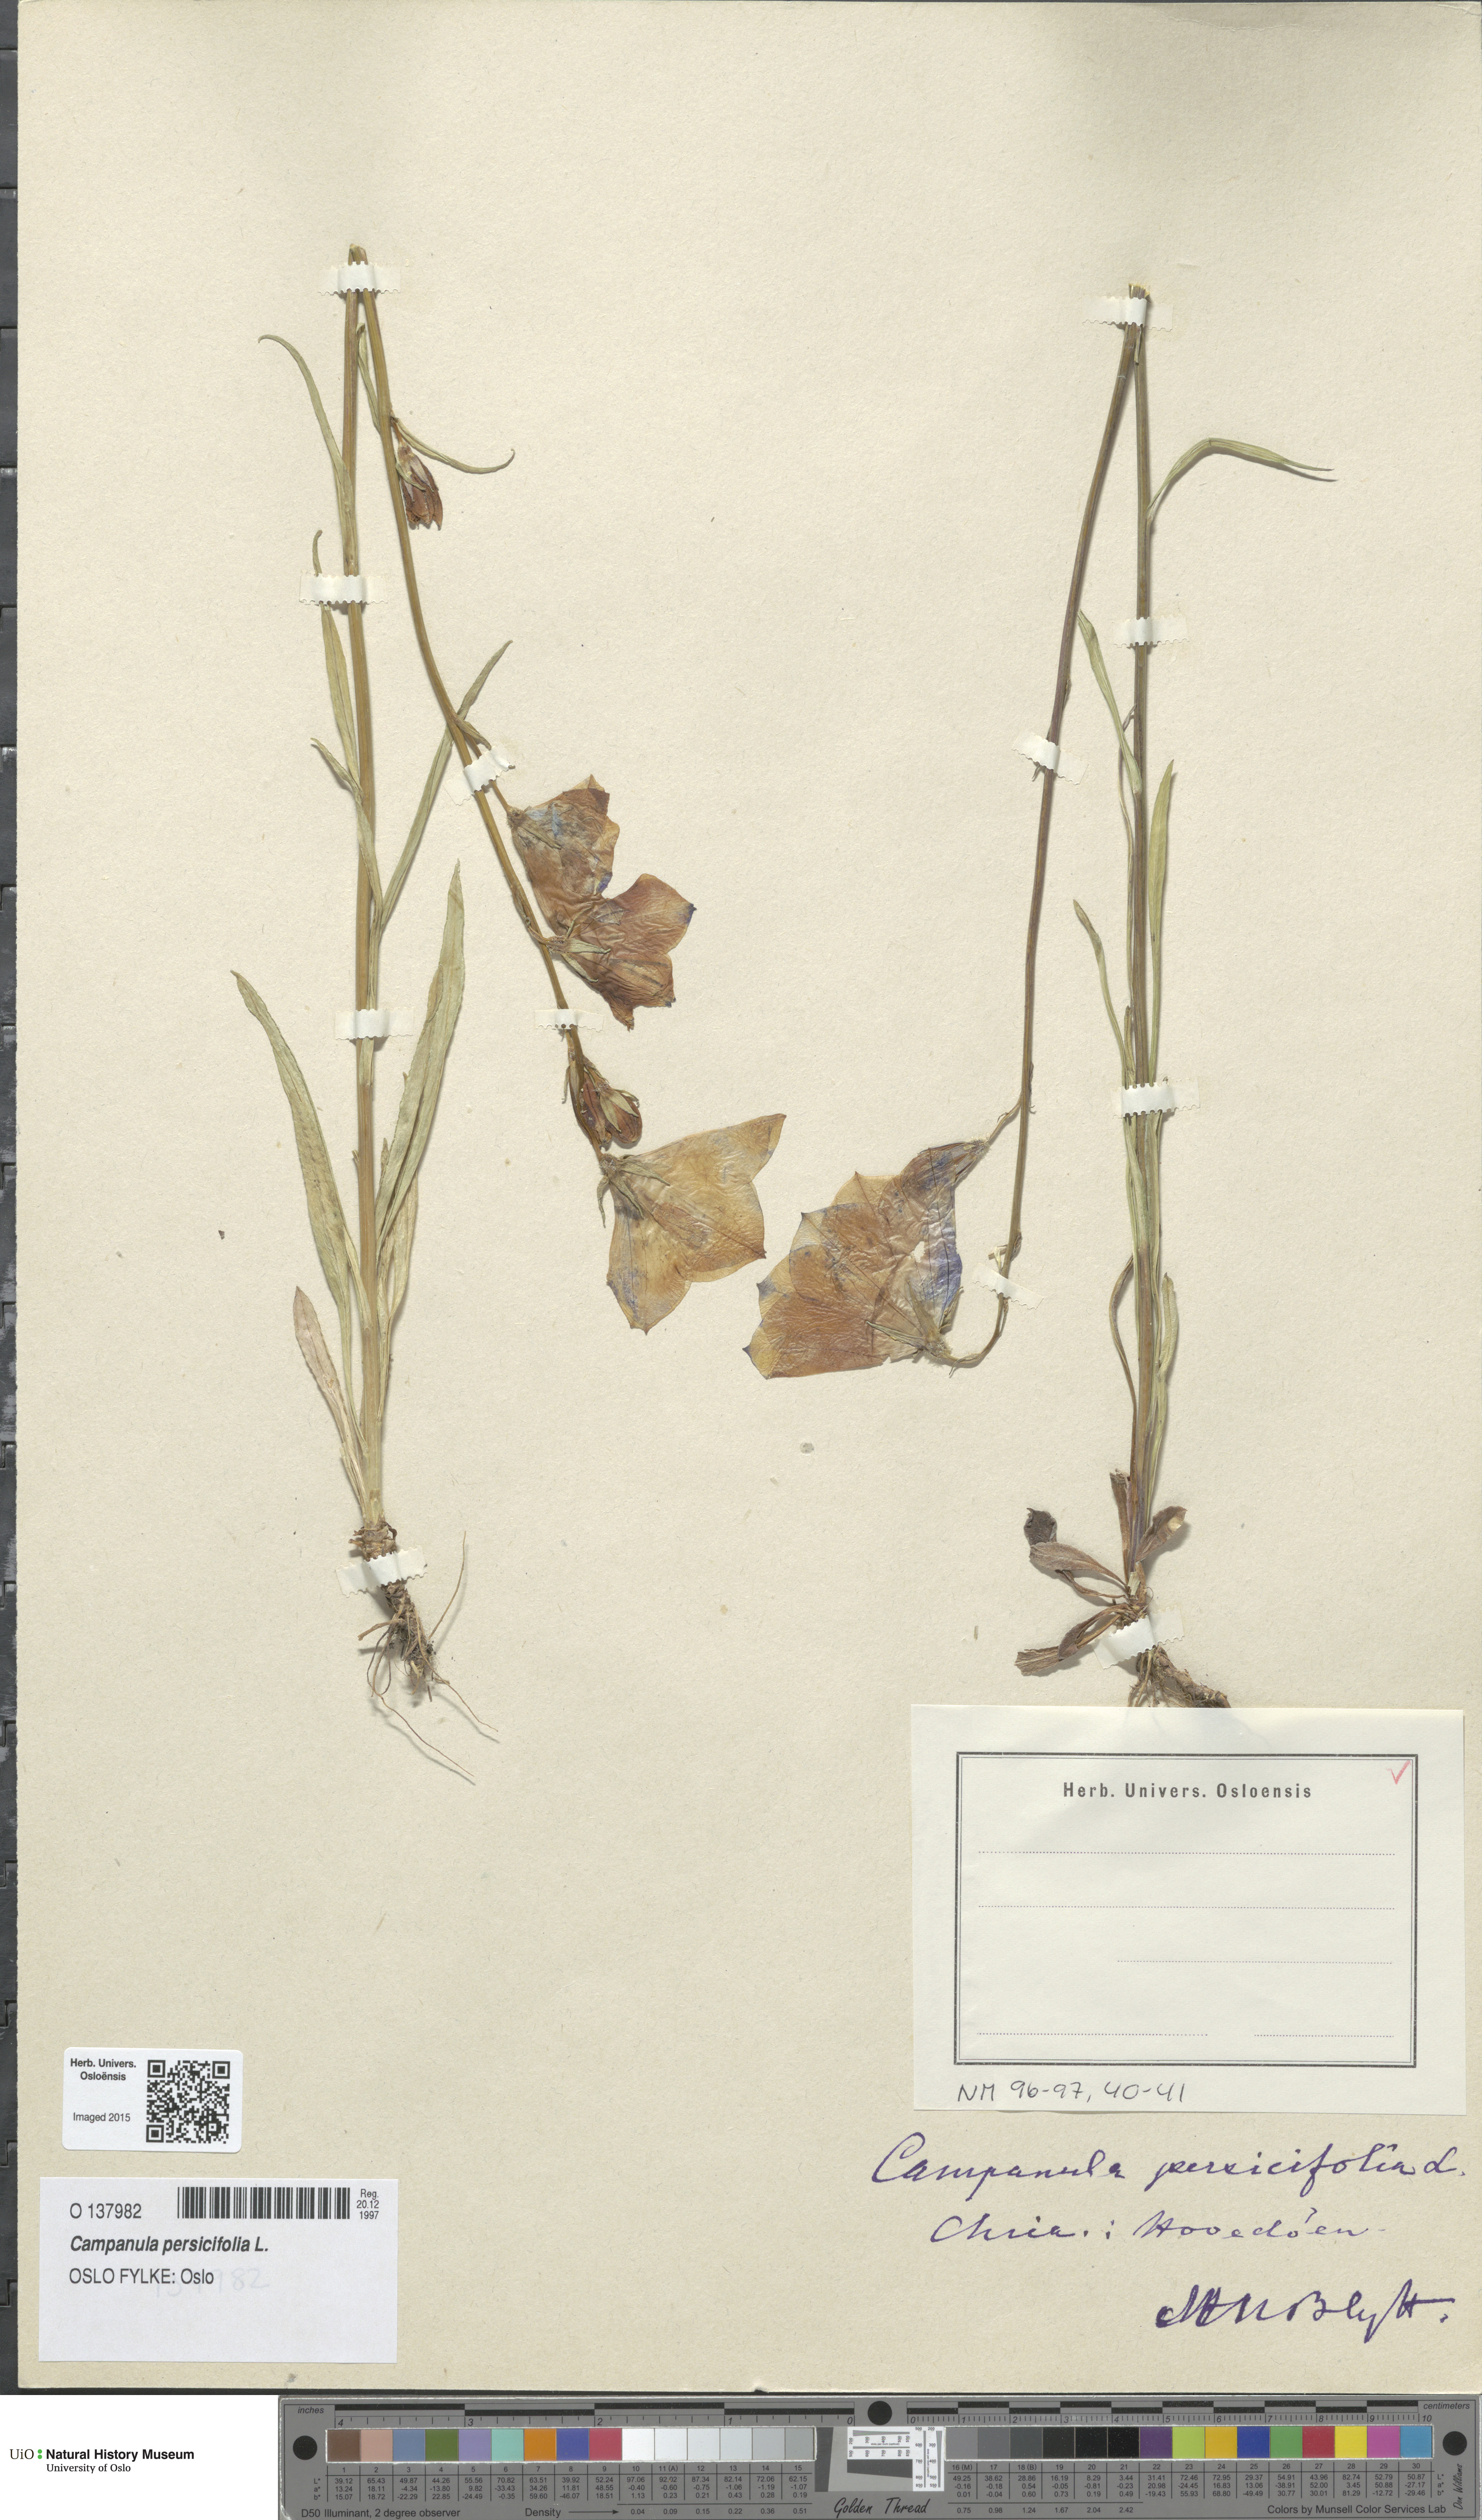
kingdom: Plantae
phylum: Tracheophyta
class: Magnoliopsida
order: Asterales
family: Campanulaceae
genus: Campanula
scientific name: Campanula persicifolia
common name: Peach-leaved bellflower
